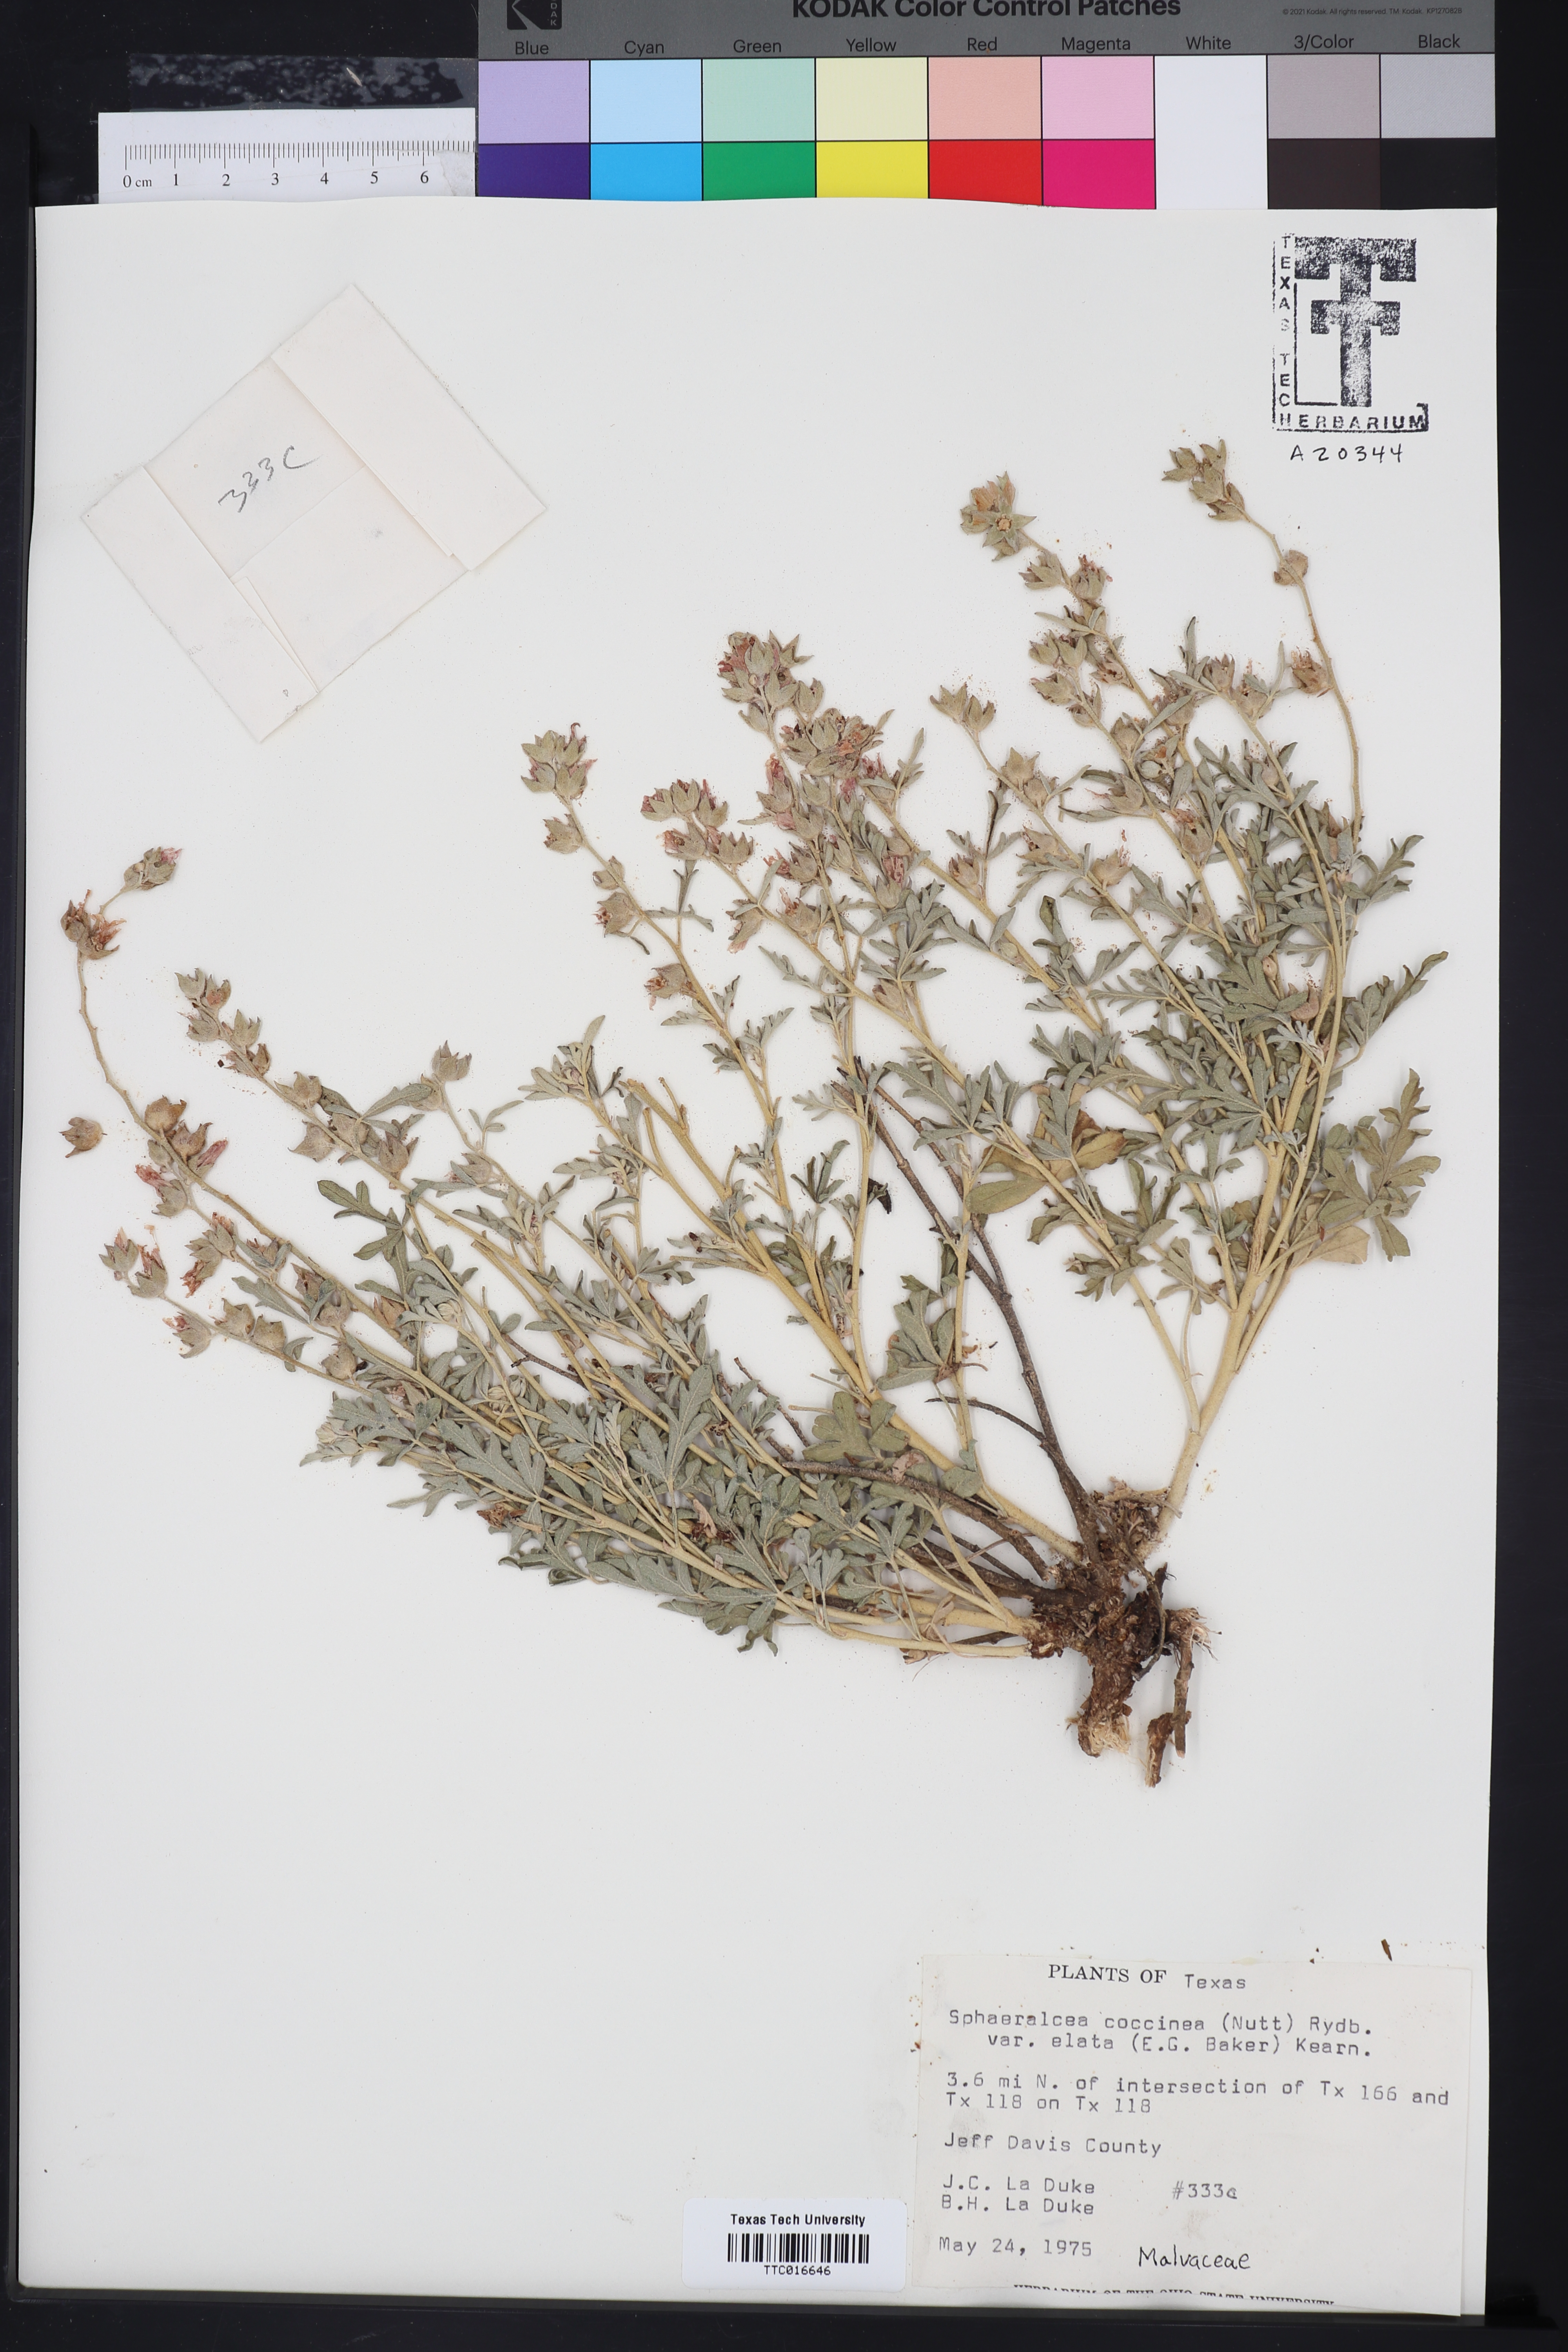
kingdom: Plantae
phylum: Tracheophyta
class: Magnoliopsida
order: Malvales
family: Malvaceae
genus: Sphaeralcea
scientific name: Sphaeralcea coccinea
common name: Moss-rose
